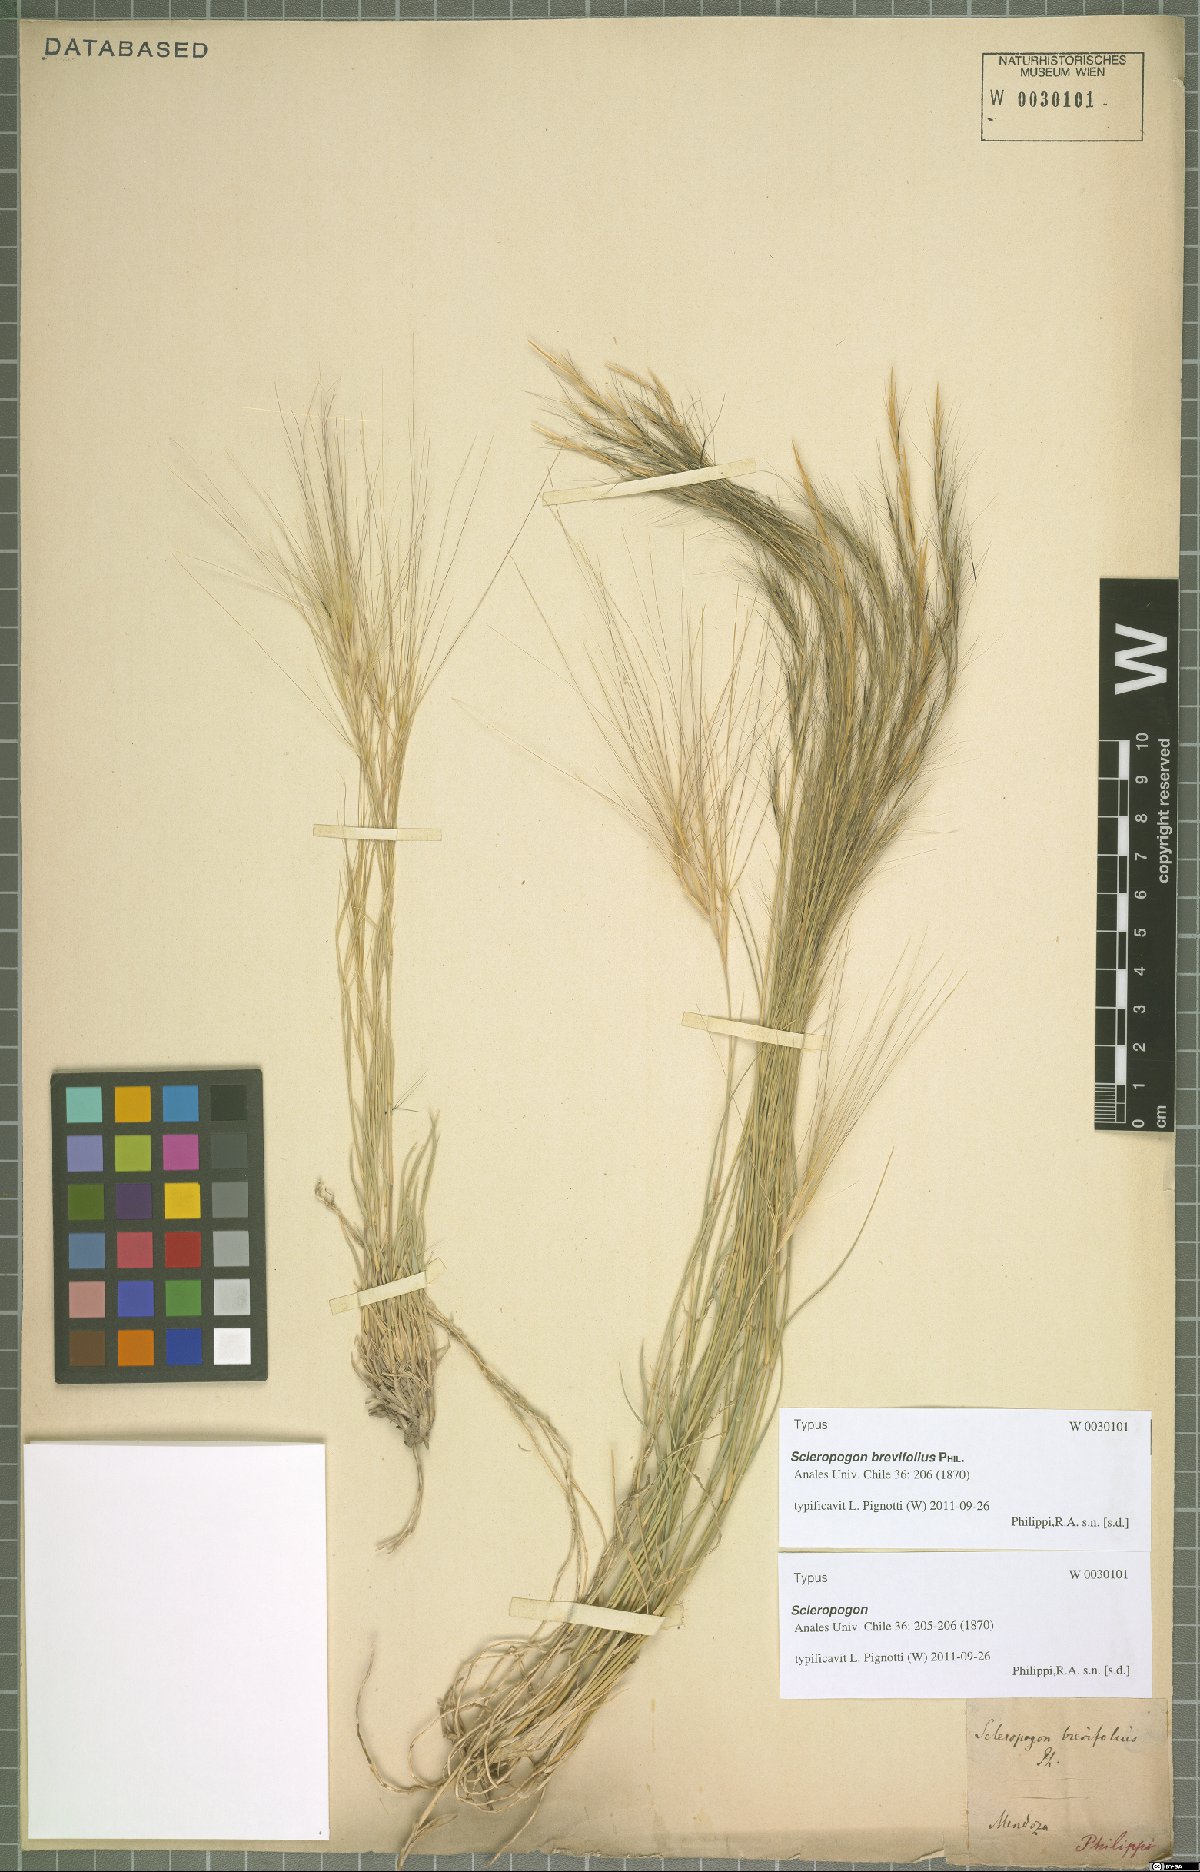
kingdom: Plantae
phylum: Tracheophyta
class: Liliopsida
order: Poales
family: Poaceae
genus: Scleropogon
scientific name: Scleropogon brevifolius
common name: Burro grass
